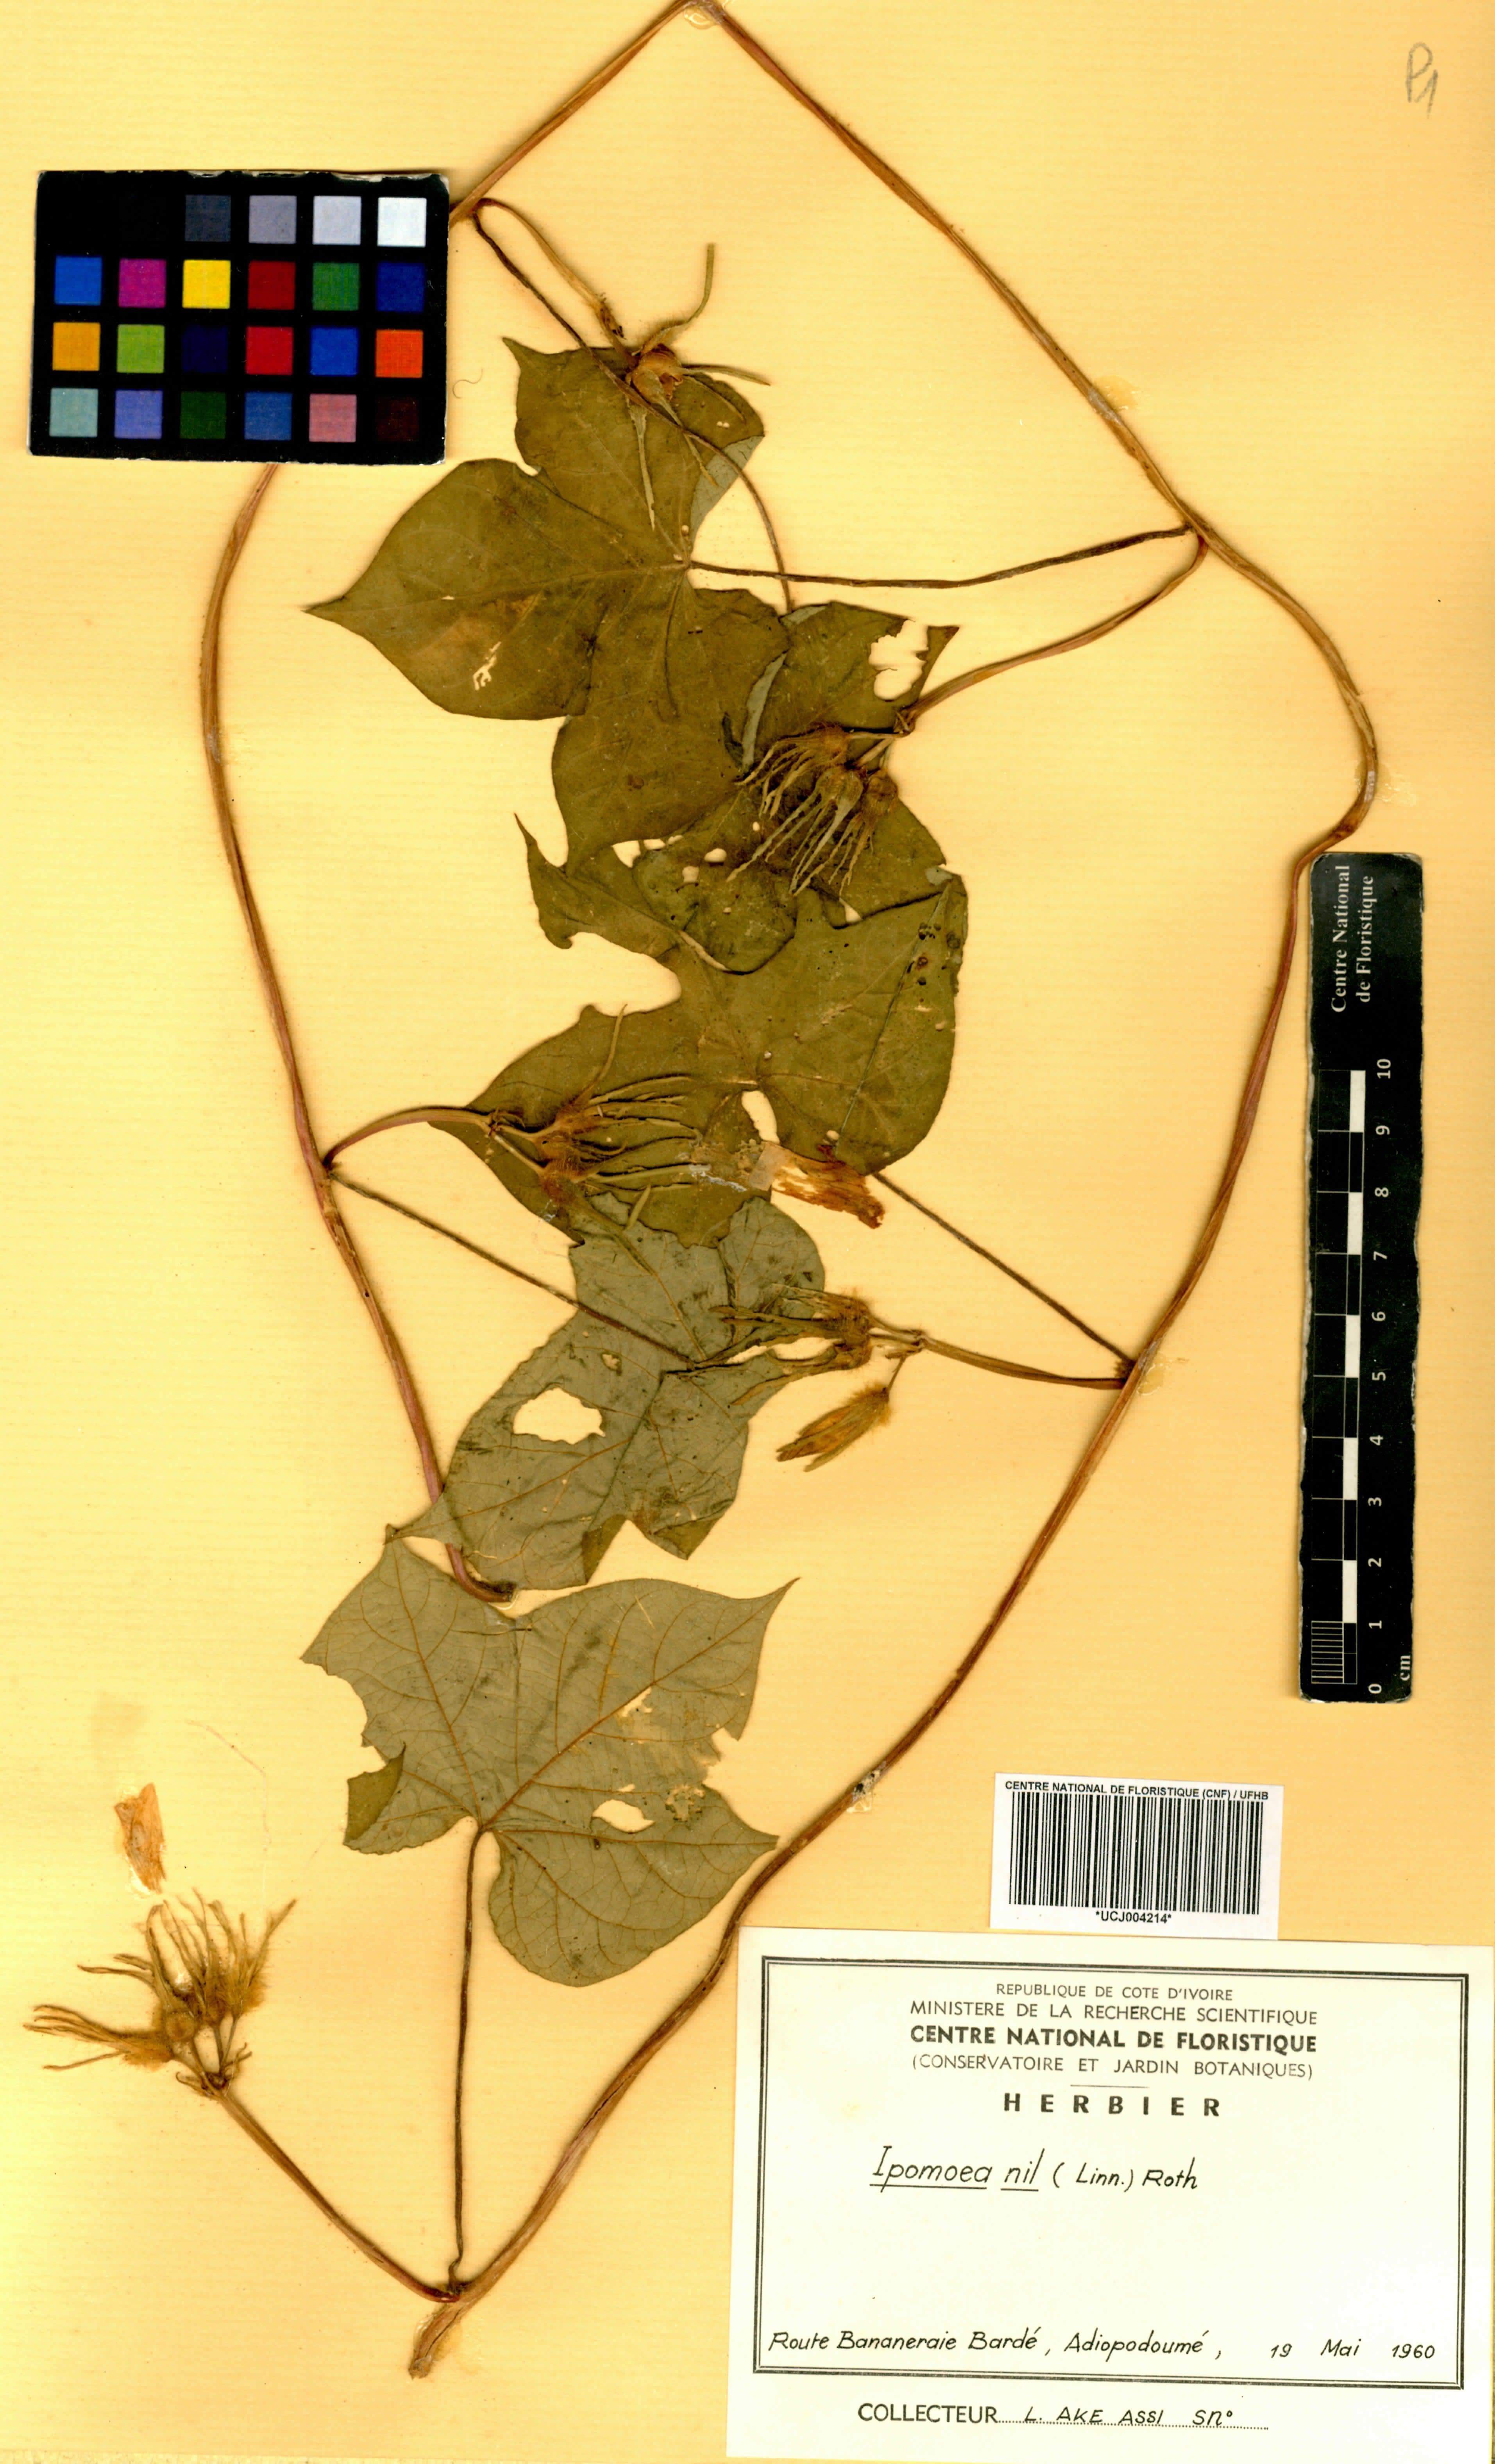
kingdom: Plantae
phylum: Tracheophyta
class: Magnoliopsida
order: Solanales
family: Convolvulaceae
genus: Ipomoea
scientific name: Ipomoea nil
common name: Japanese morning-glory
